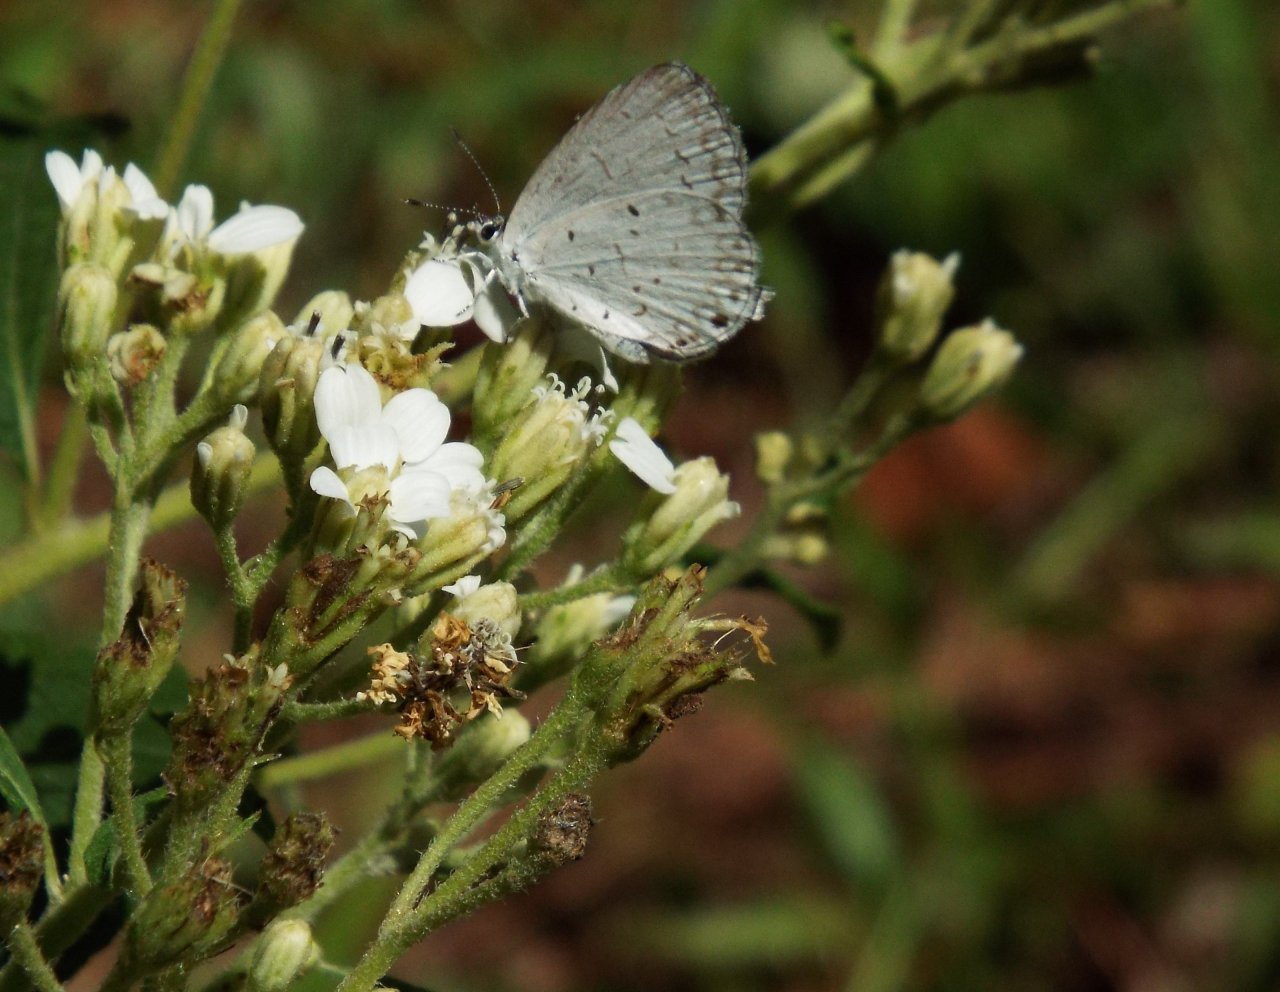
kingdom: Animalia
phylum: Arthropoda
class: Insecta
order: Lepidoptera
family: Lycaenidae
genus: Cyaniris
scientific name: Cyaniris neglecta
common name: Summer Azure
